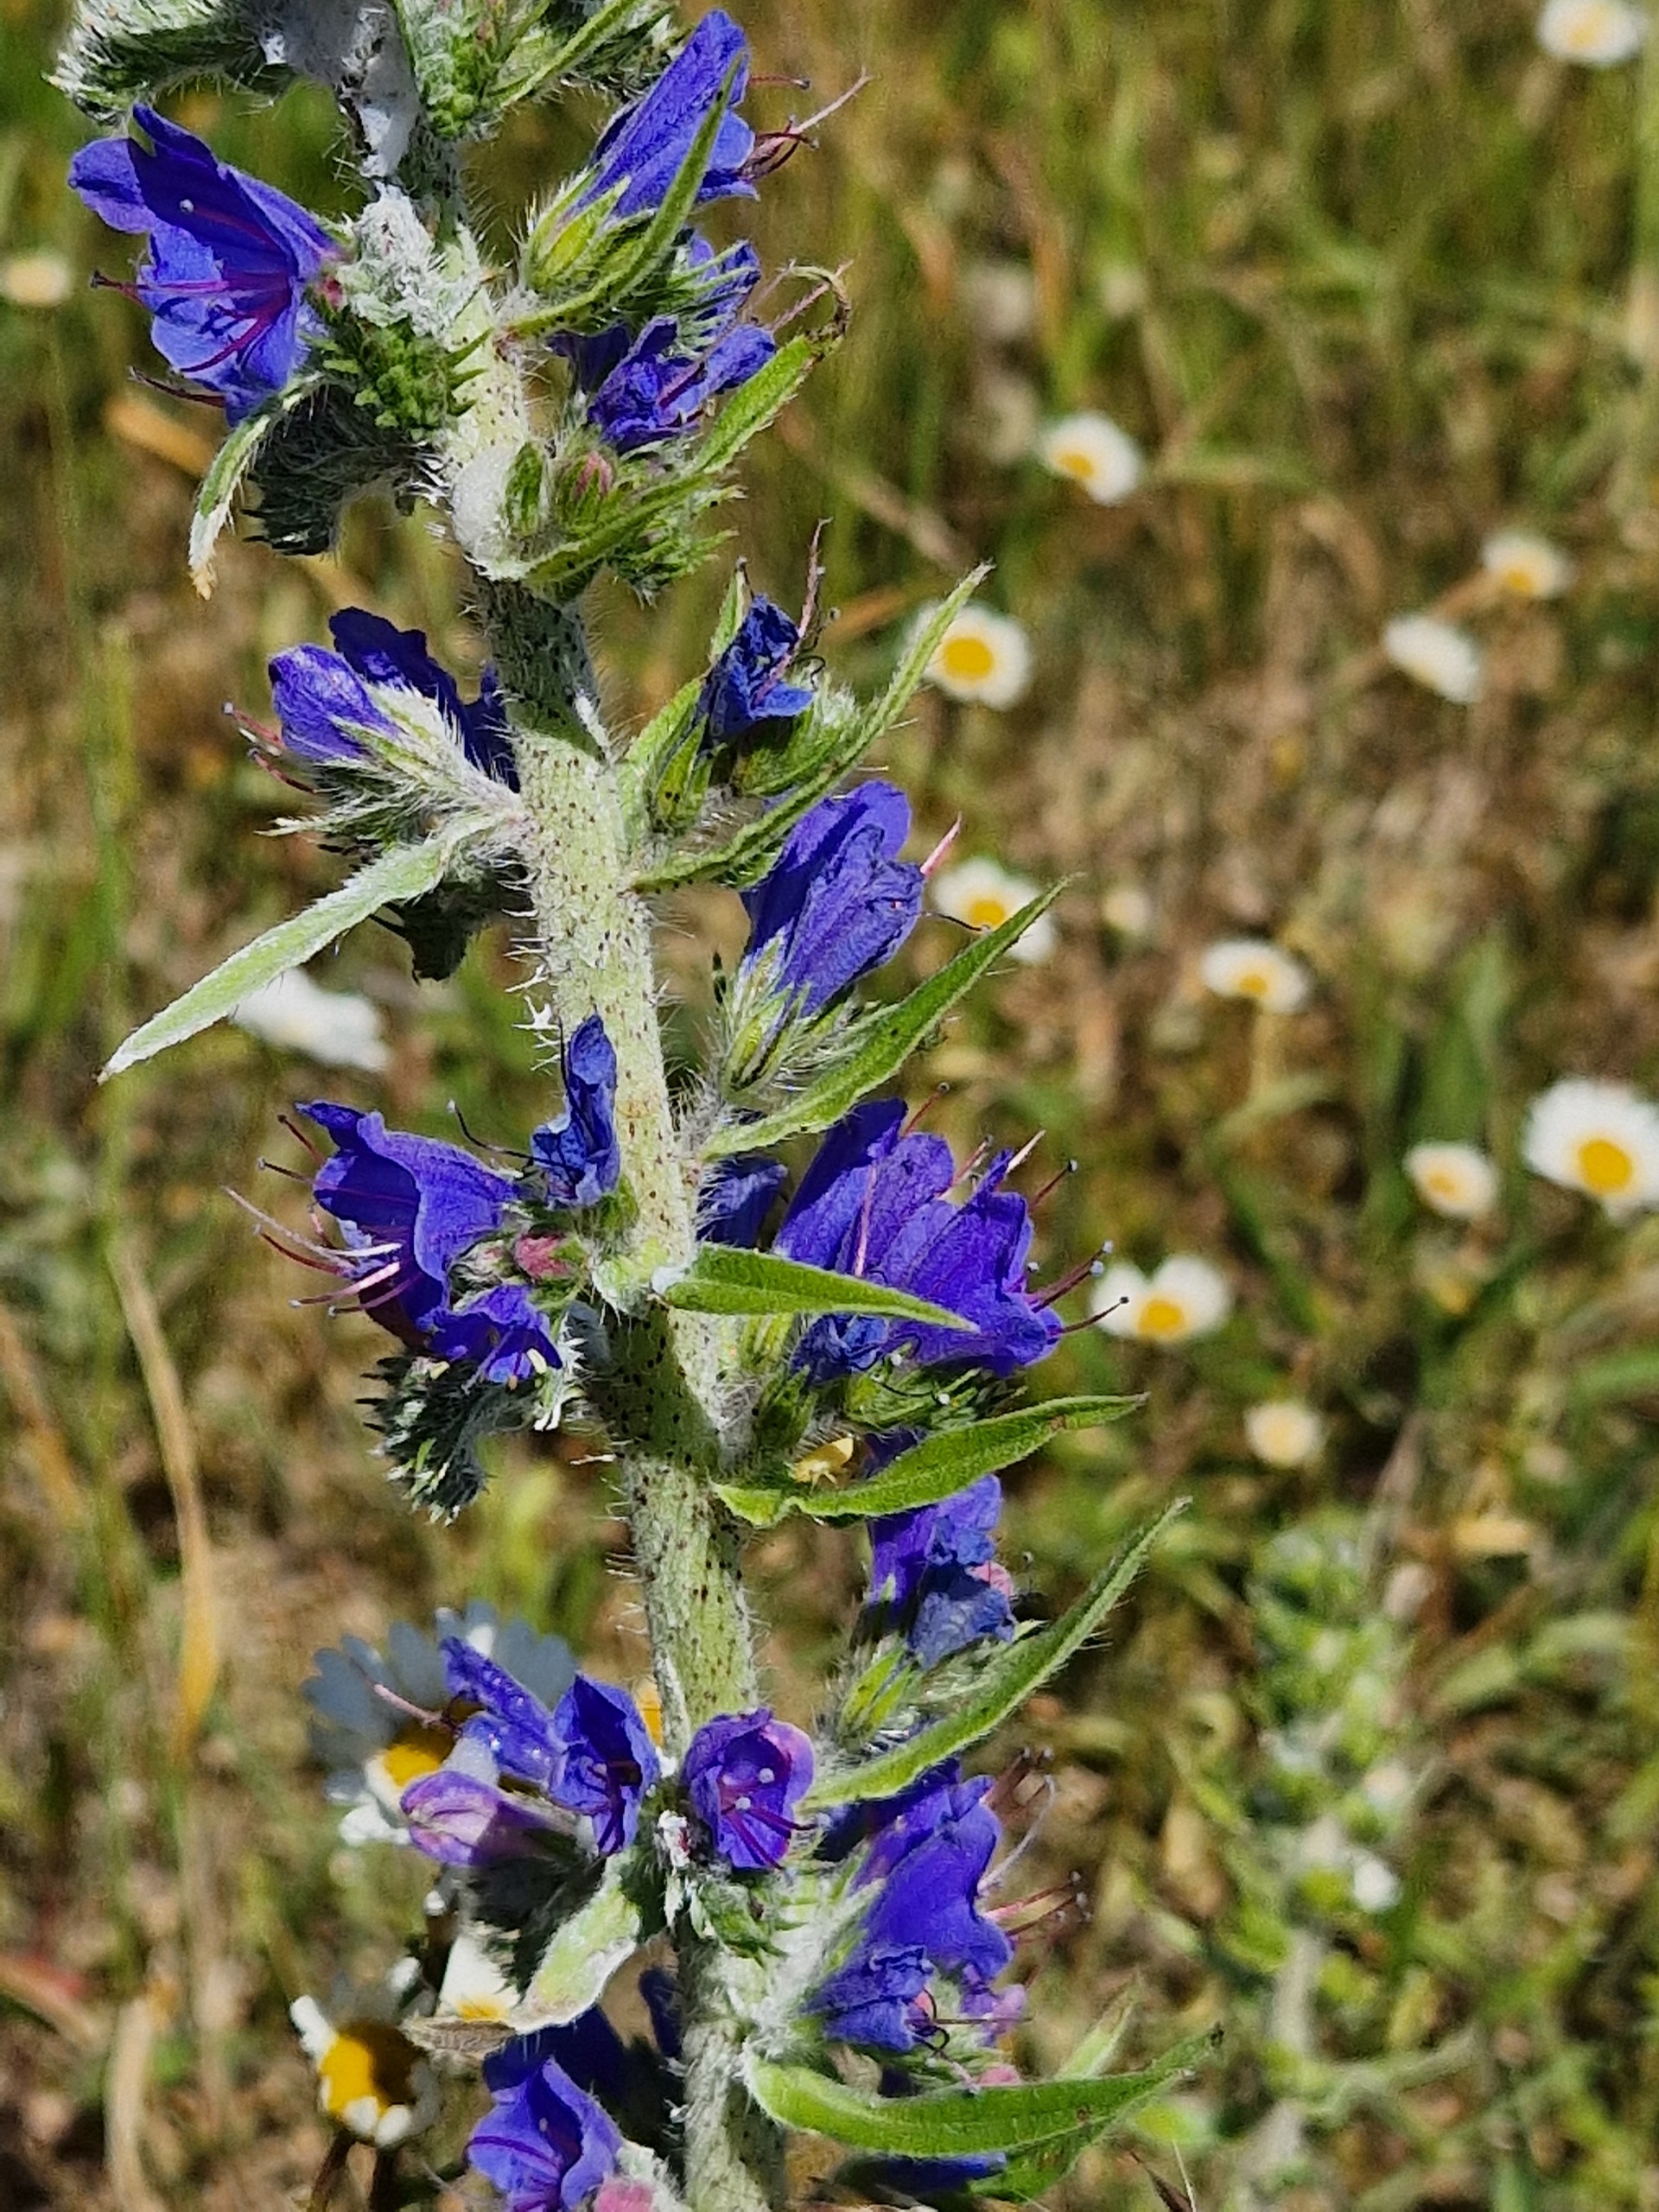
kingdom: Plantae
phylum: Tracheophyta
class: Magnoliopsida
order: Boraginales
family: Boraginaceae
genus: Echium
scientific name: Echium vulgare
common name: Slangehoved
